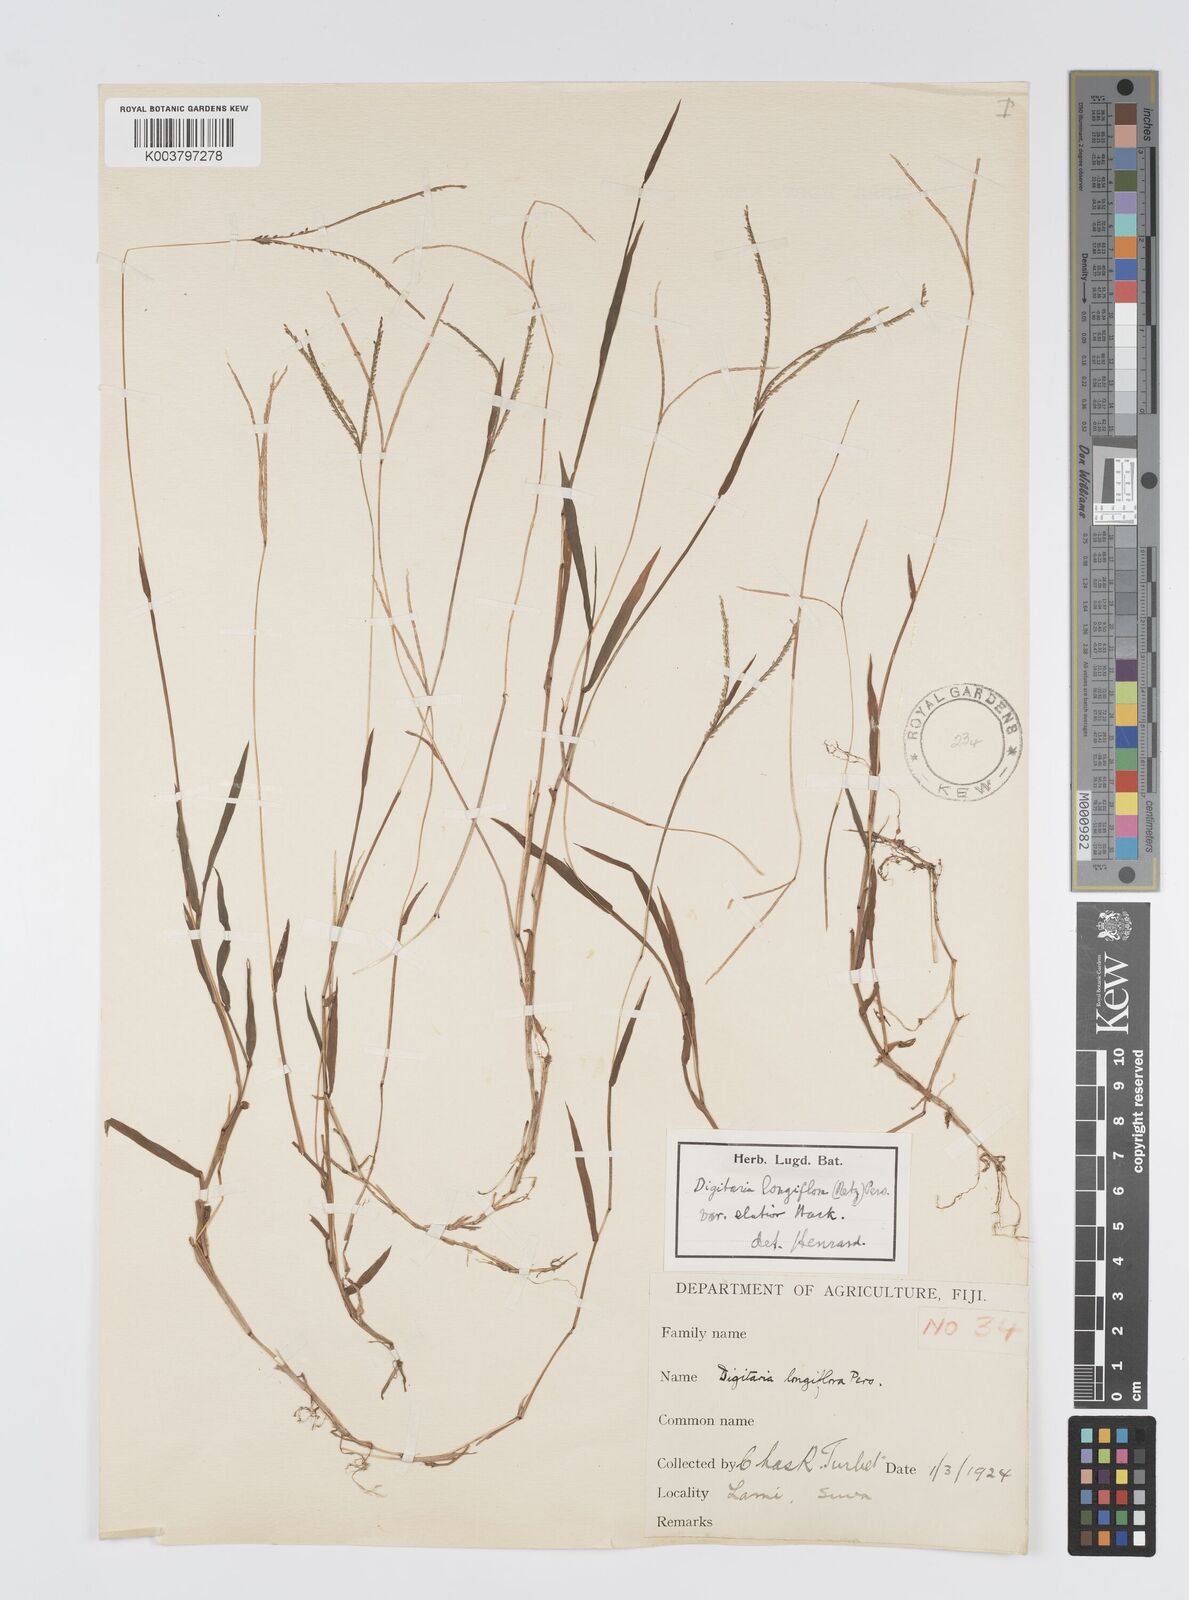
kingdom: Plantae
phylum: Tracheophyta
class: Liliopsida
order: Poales
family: Poaceae
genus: Digitaria
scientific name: Digitaria fuscescens
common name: Yellow crabgrass
